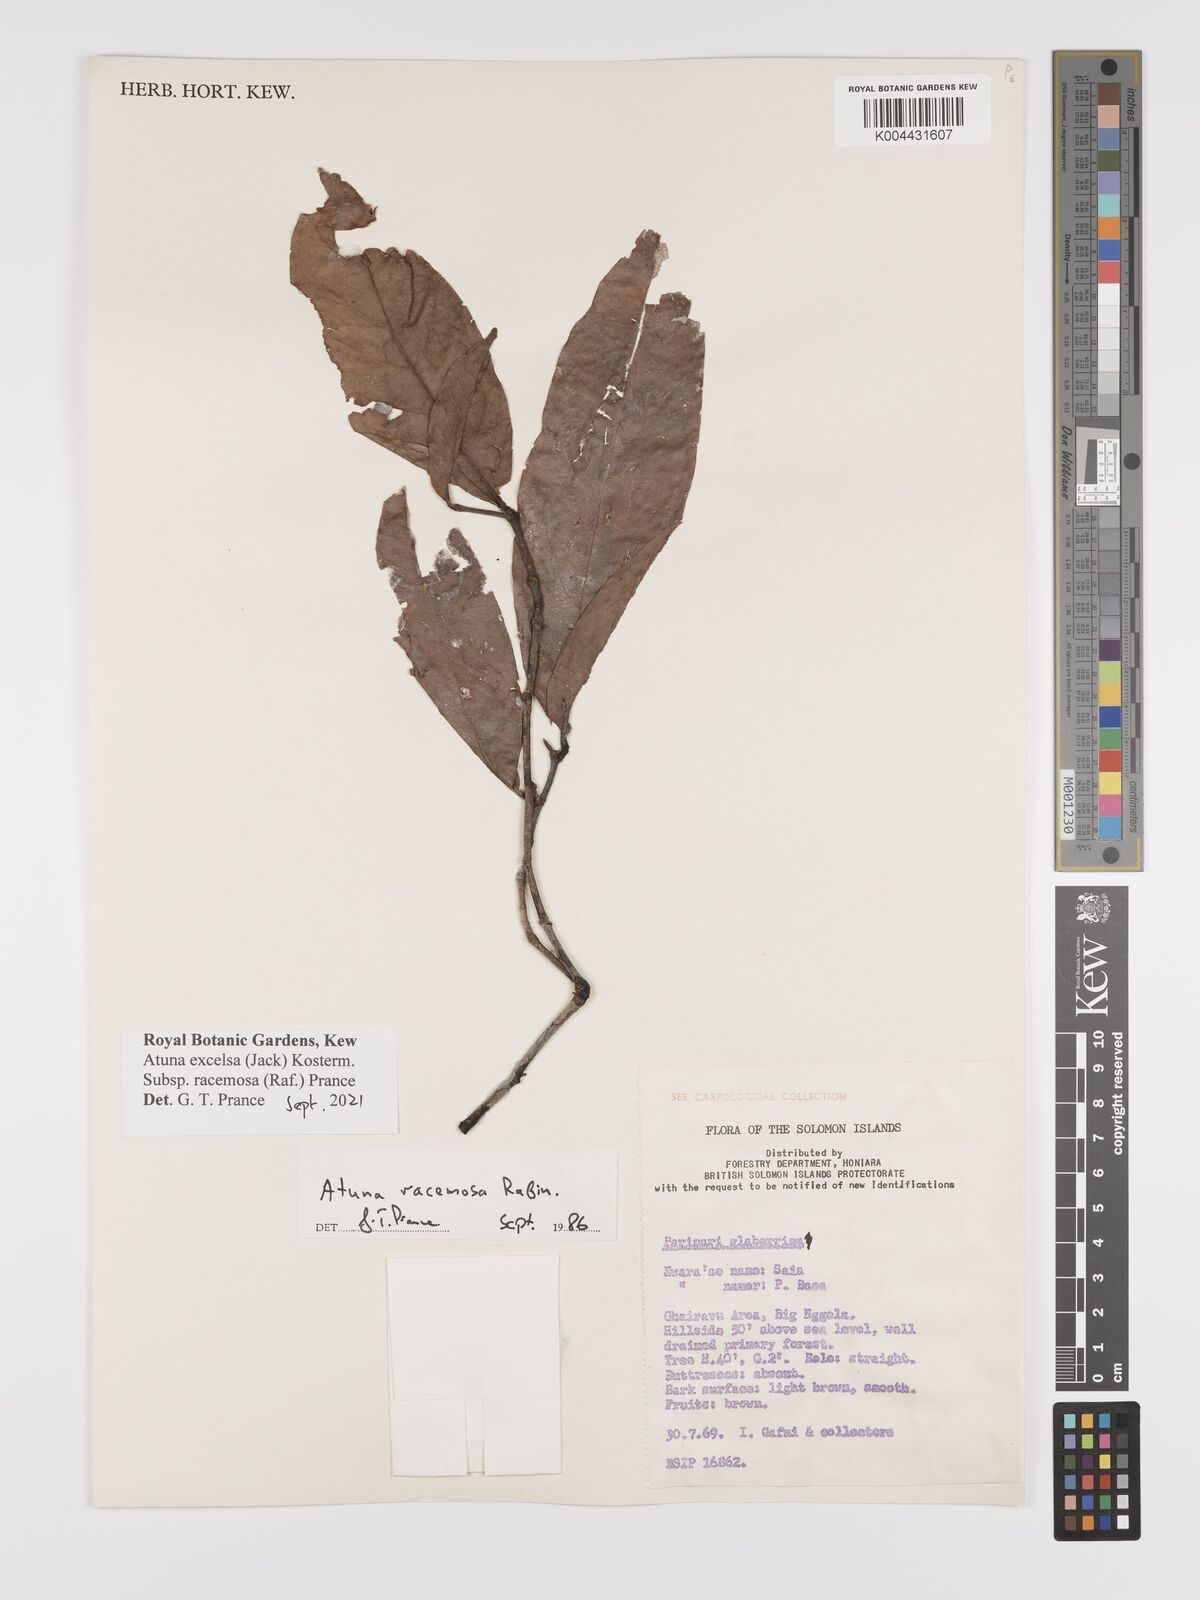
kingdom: Plantae
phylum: Tracheophyta
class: Magnoliopsida
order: Malpighiales
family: Chrysobalanaceae
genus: Atuna
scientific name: Atuna
